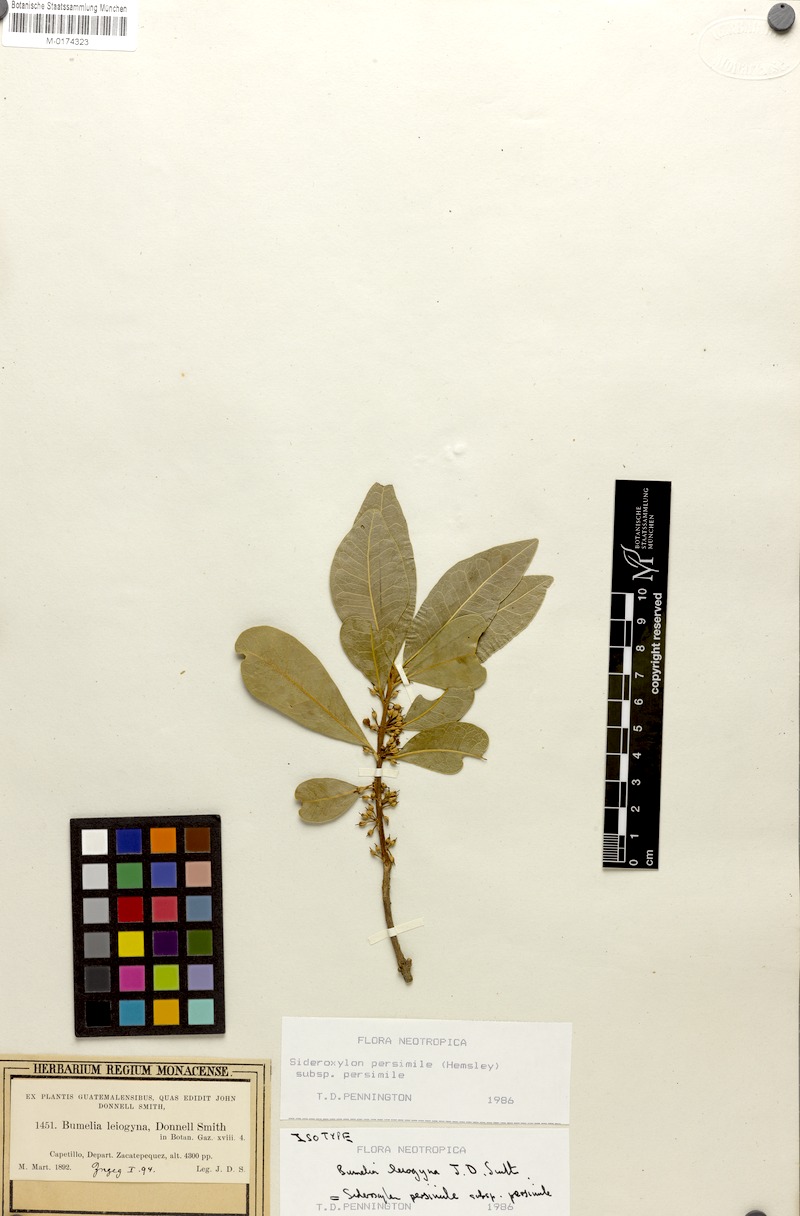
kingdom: Plantae
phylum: Tracheophyta
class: Magnoliopsida
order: Ericales
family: Sapotaceae
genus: Sideroxylon
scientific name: Sideroxylon persimile
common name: Bumelia
